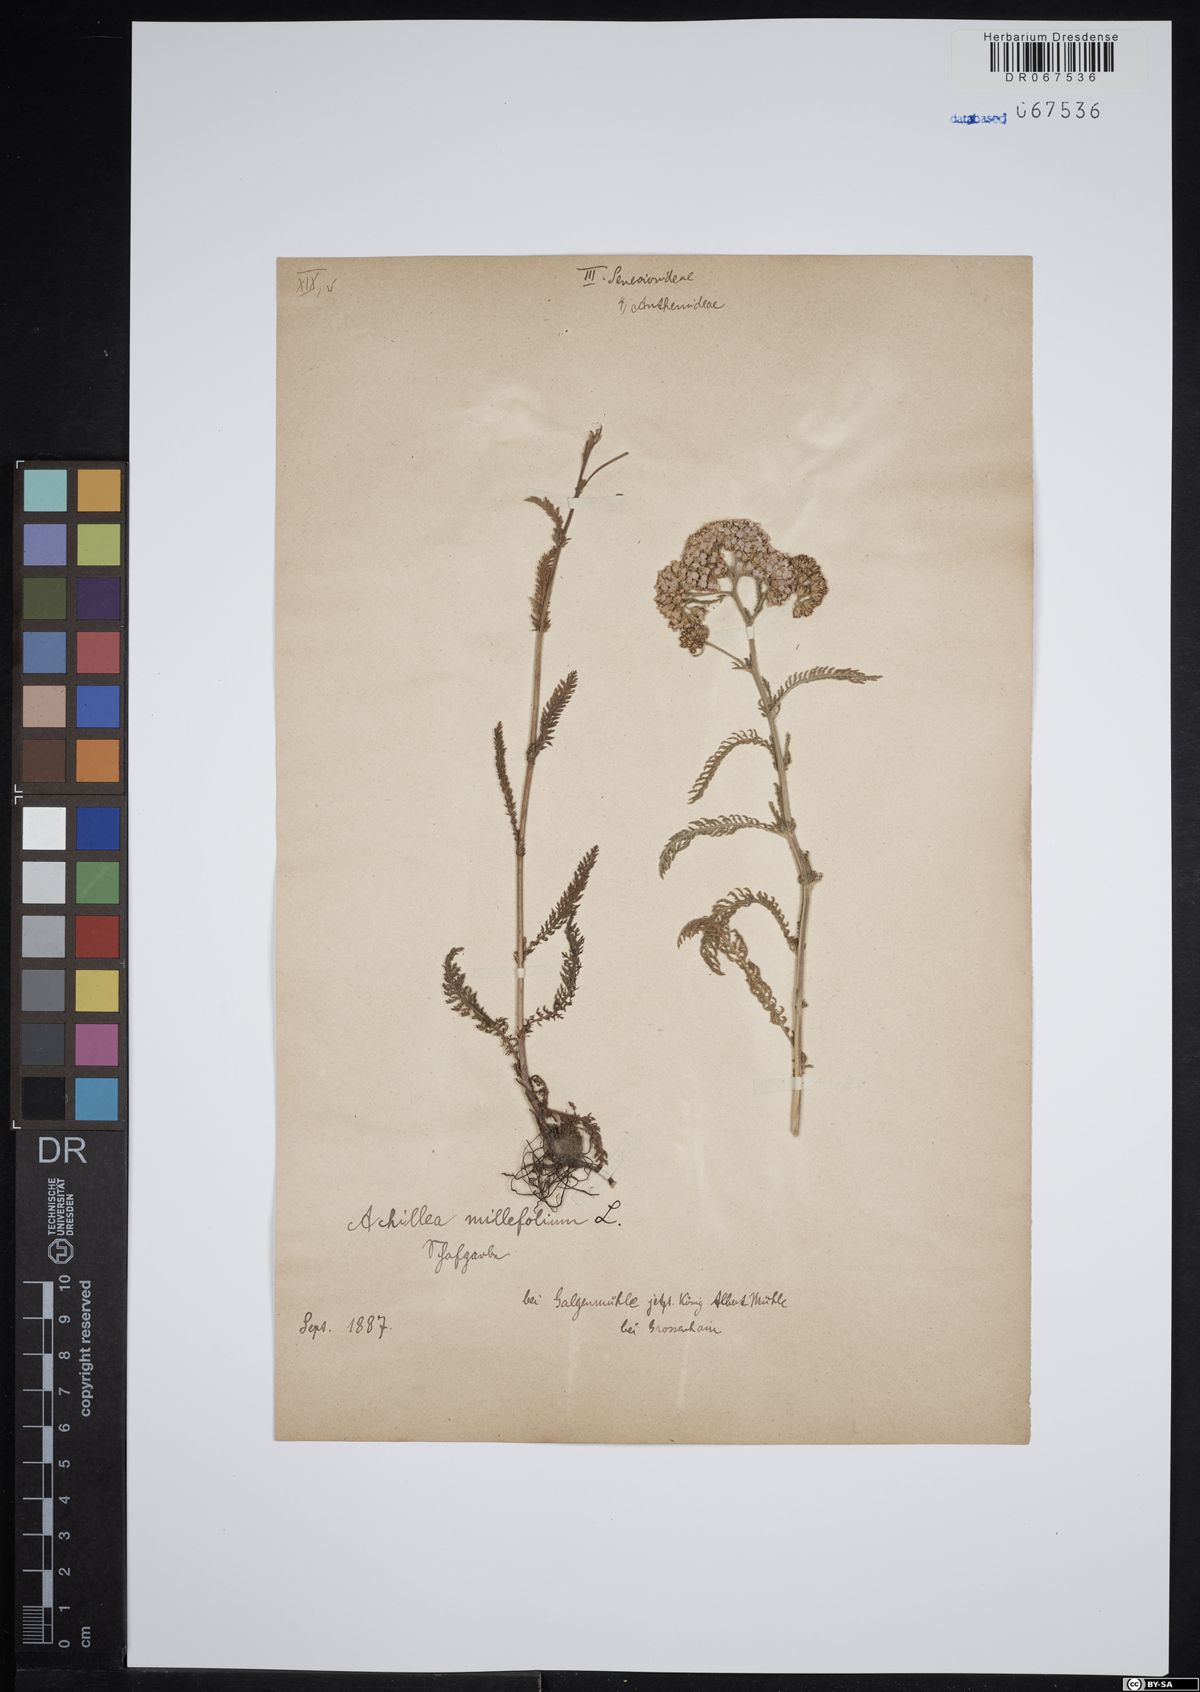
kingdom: Plantae
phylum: Tracheophyta
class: Magnoliopsida
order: Asterales
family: Asteraceae
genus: Achillea
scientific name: Achillea millefolium
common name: Yarrow
